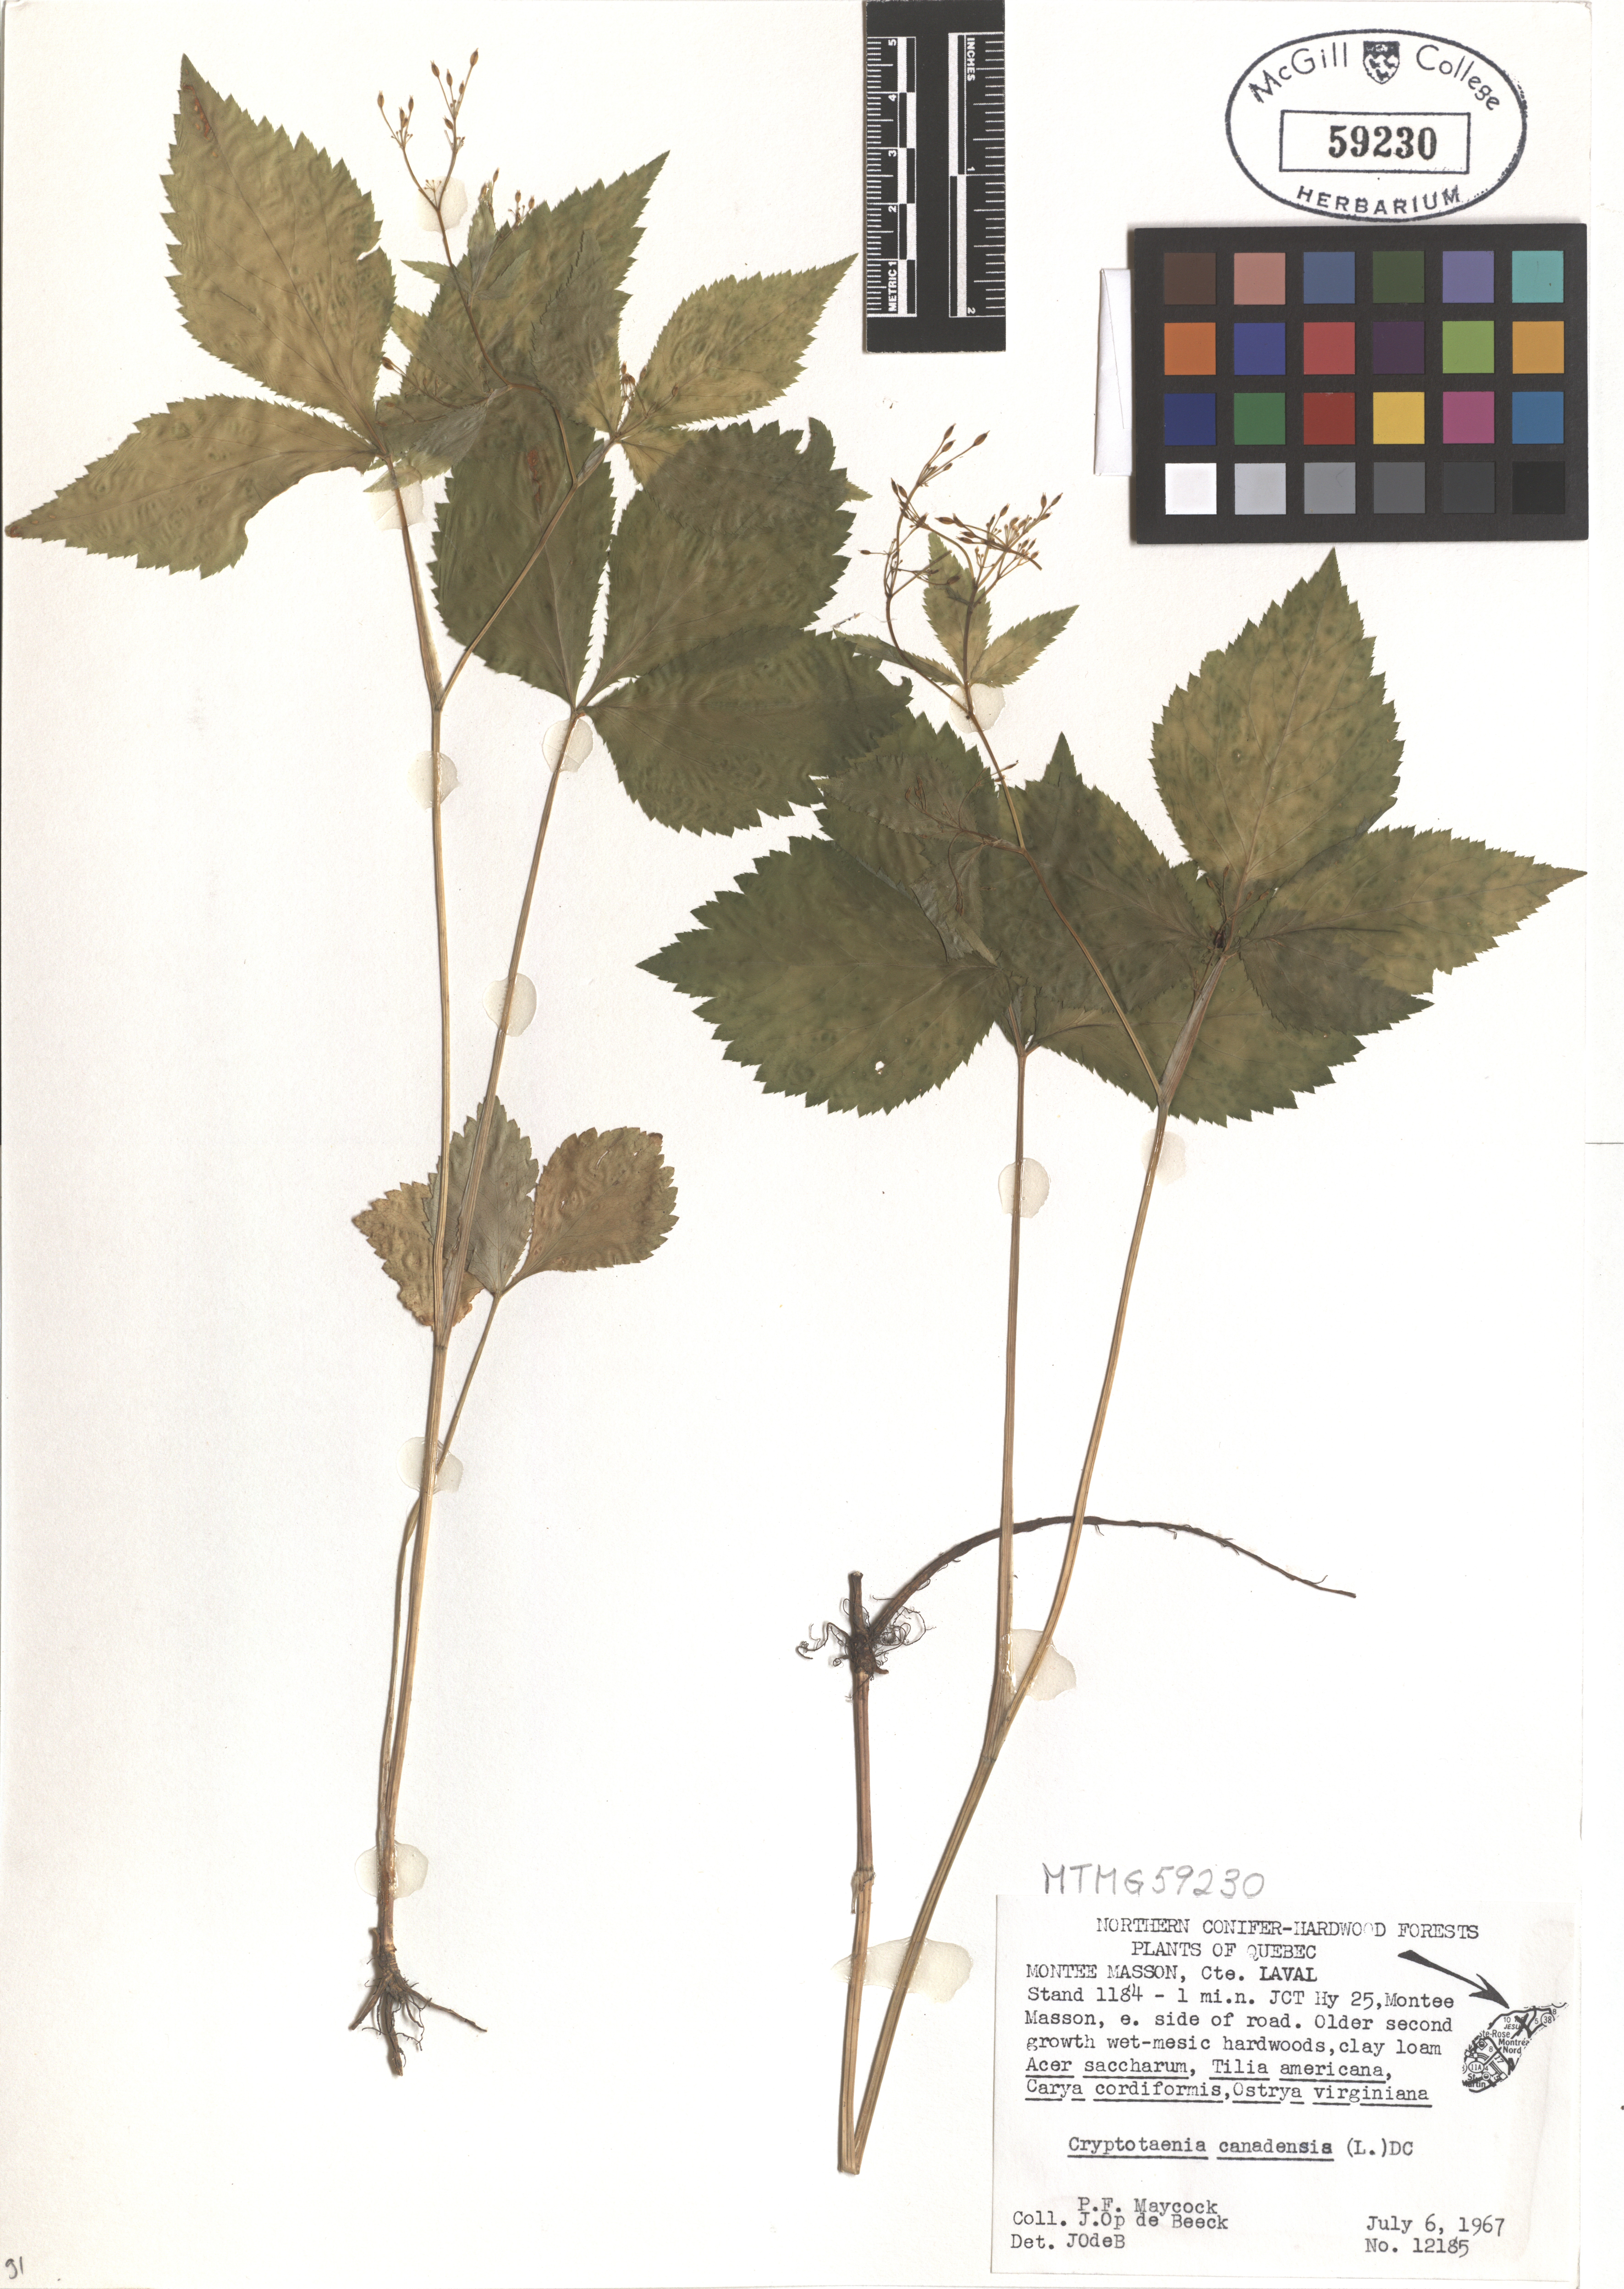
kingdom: Plantae
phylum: Tracheophyta
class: Magnoliopsida
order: Apiales
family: Apiaceae
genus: Cryptotaenia
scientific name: Cryptotaenia canadensis
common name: Honewort
